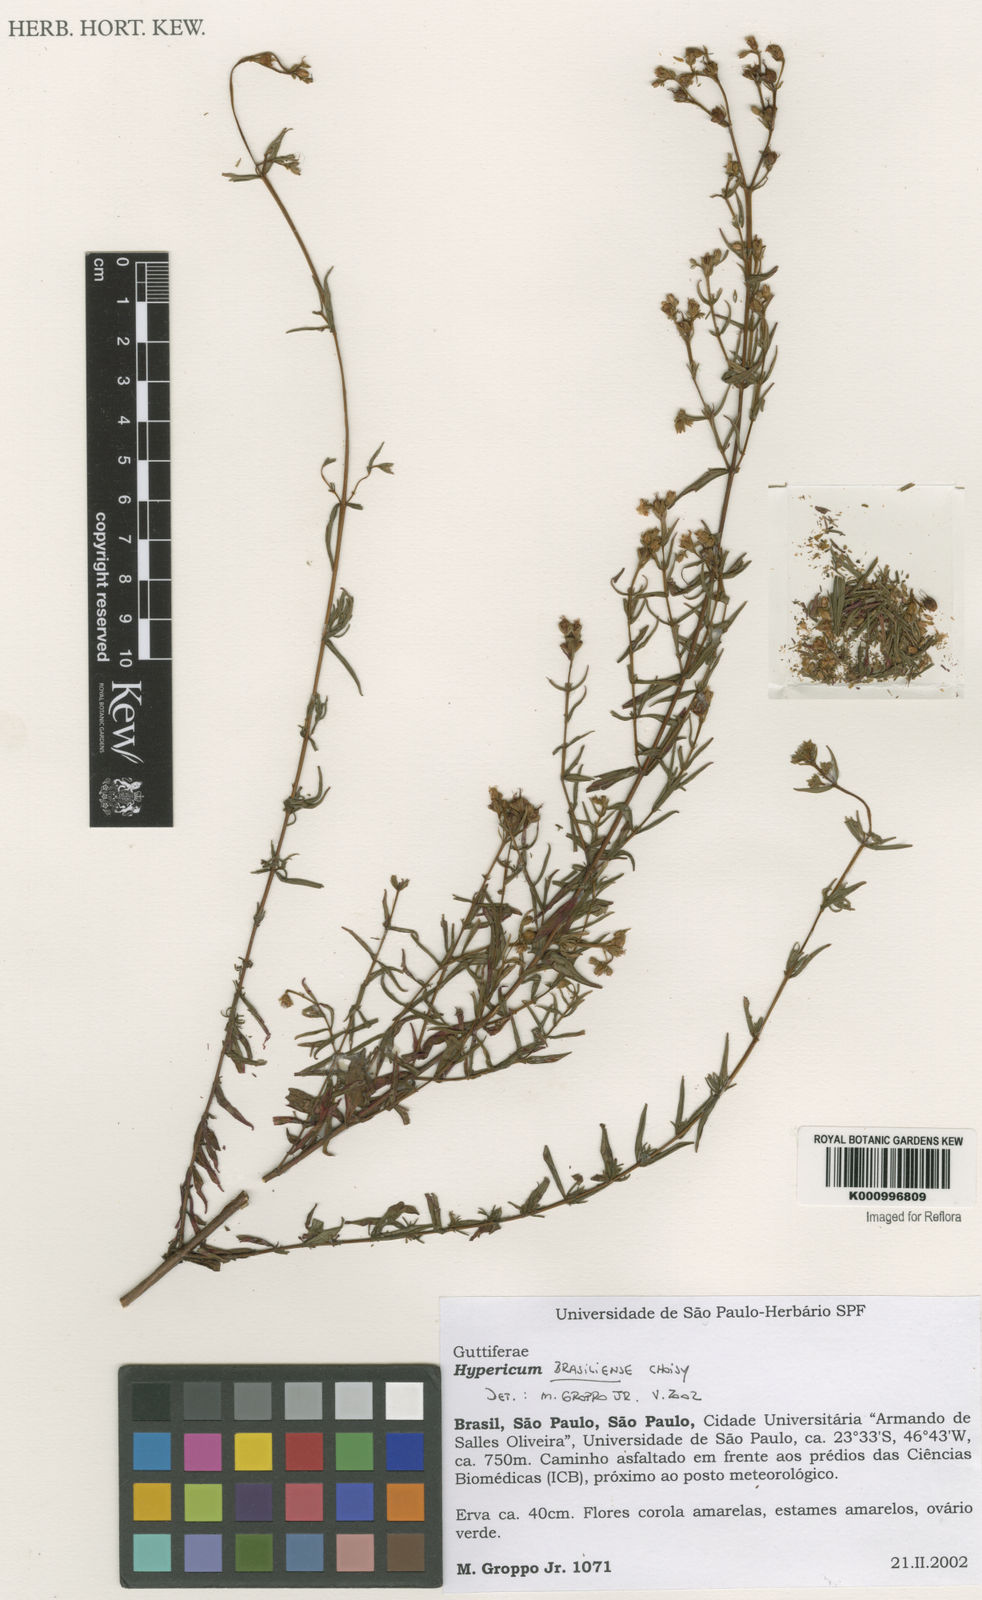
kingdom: Plantae
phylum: Tracheophyta
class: Magnoliopsida
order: Malpighiales
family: Hypericaceae
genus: Hypericum
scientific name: Hypericum brasiliense
